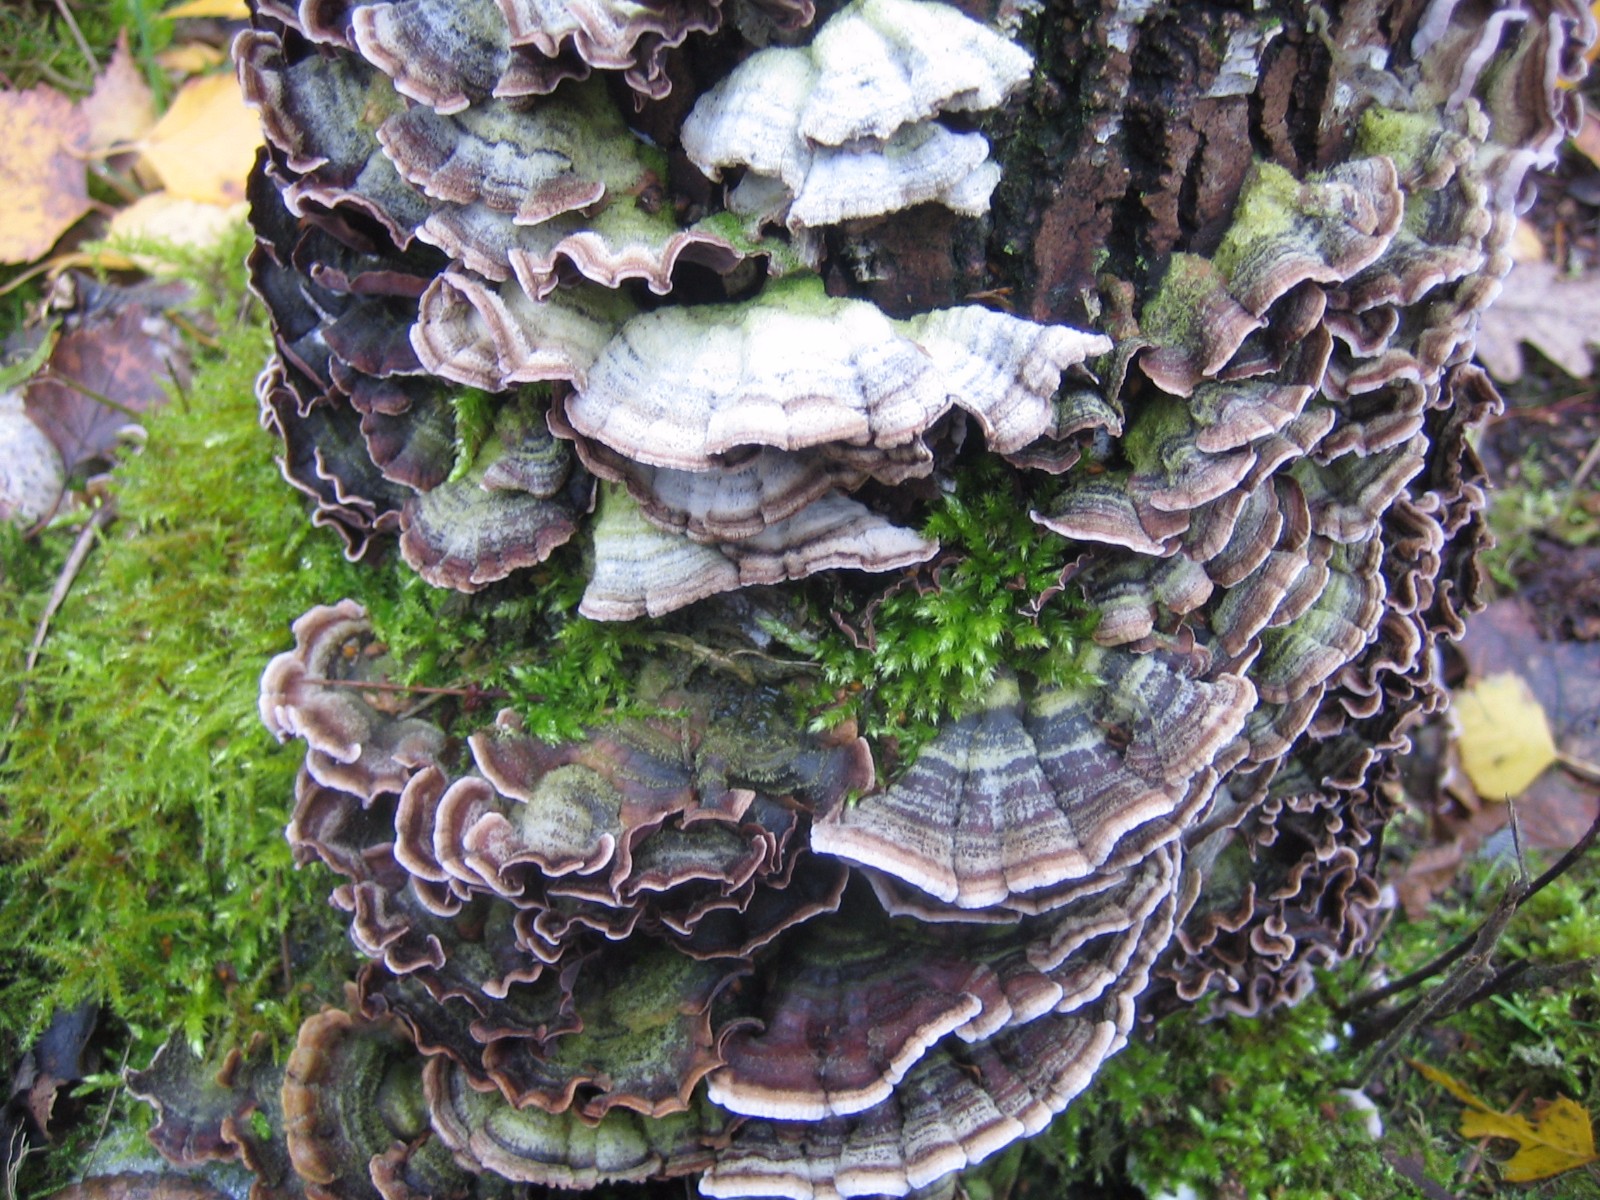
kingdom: Fungi
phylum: Basidiomycota
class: Agaricomycetes
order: Agaricales
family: Cyphellaceae
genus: Chondrostereum
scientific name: Chondrostereum purpureum
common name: purpurlædersvamp
